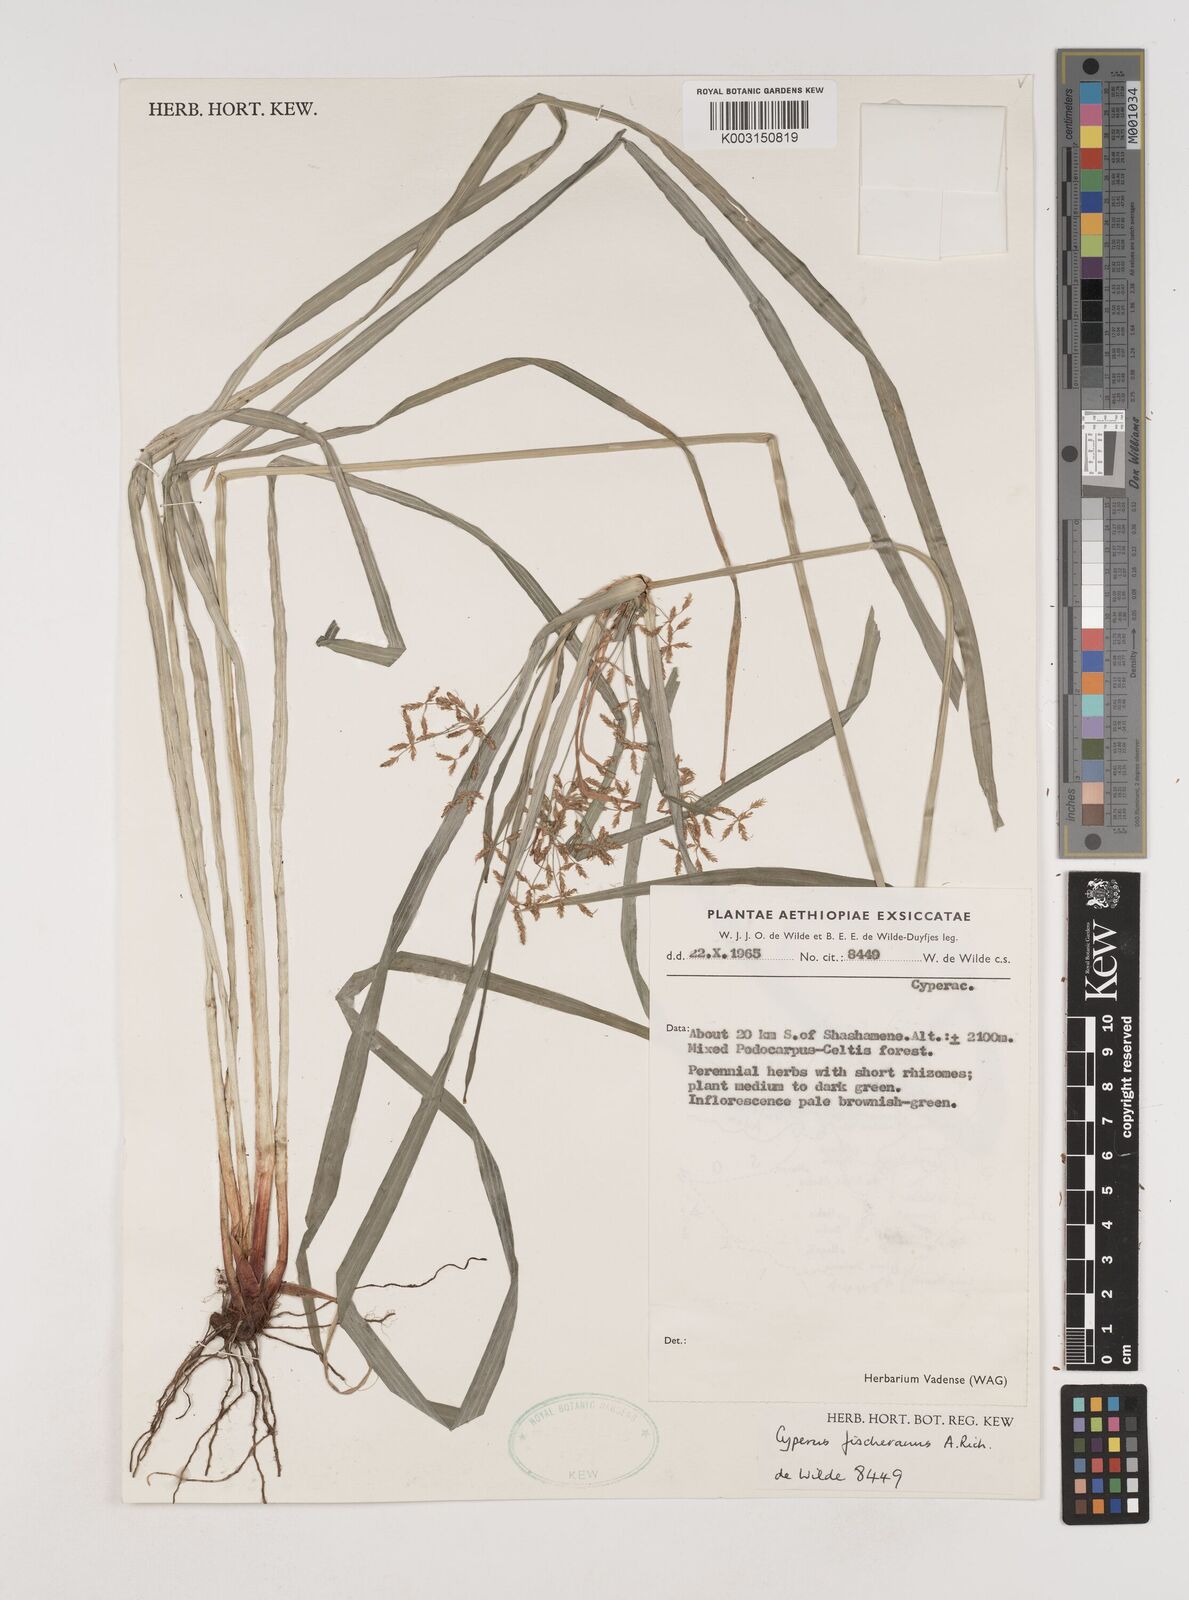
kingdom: Plantae
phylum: Tracheophyta
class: Liliopsida
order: Poales
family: Cyperaceae
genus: Cyperus
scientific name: Cyperus fischerianus
